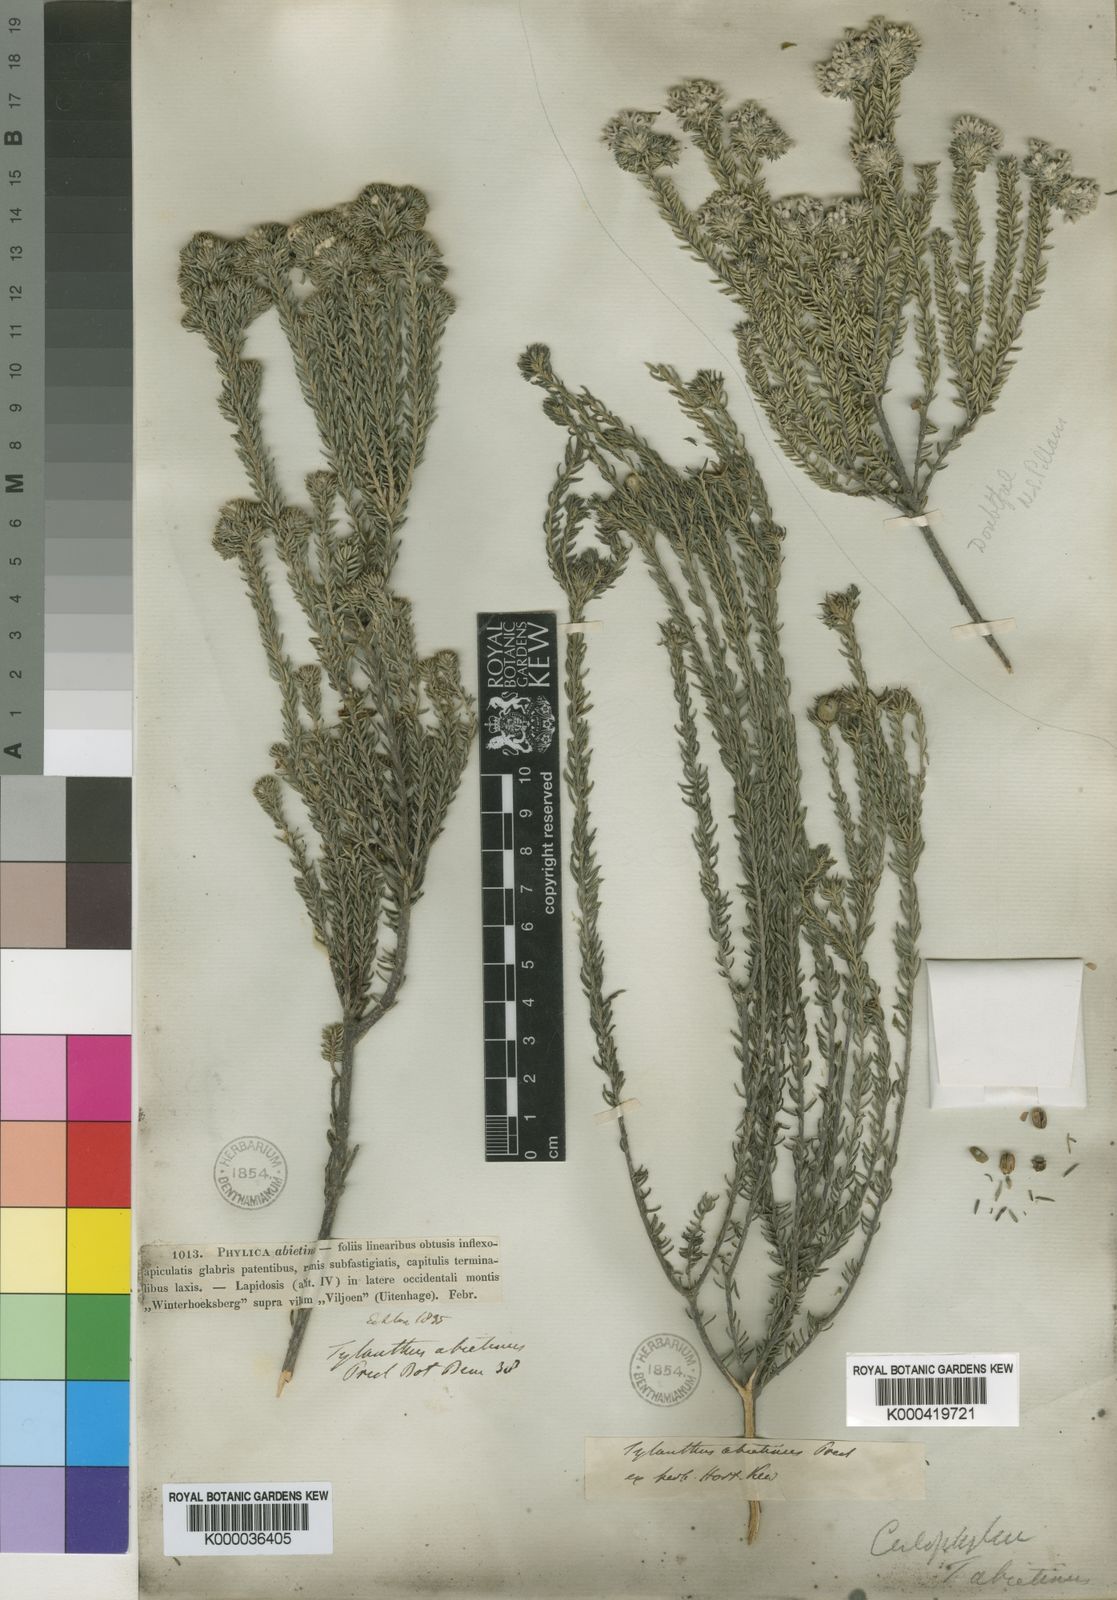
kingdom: Plantae
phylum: Tracheophyta
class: Magnoliopsida
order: Rosales
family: Rhamnaceae
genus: Phylica
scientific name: Phylica abietina
